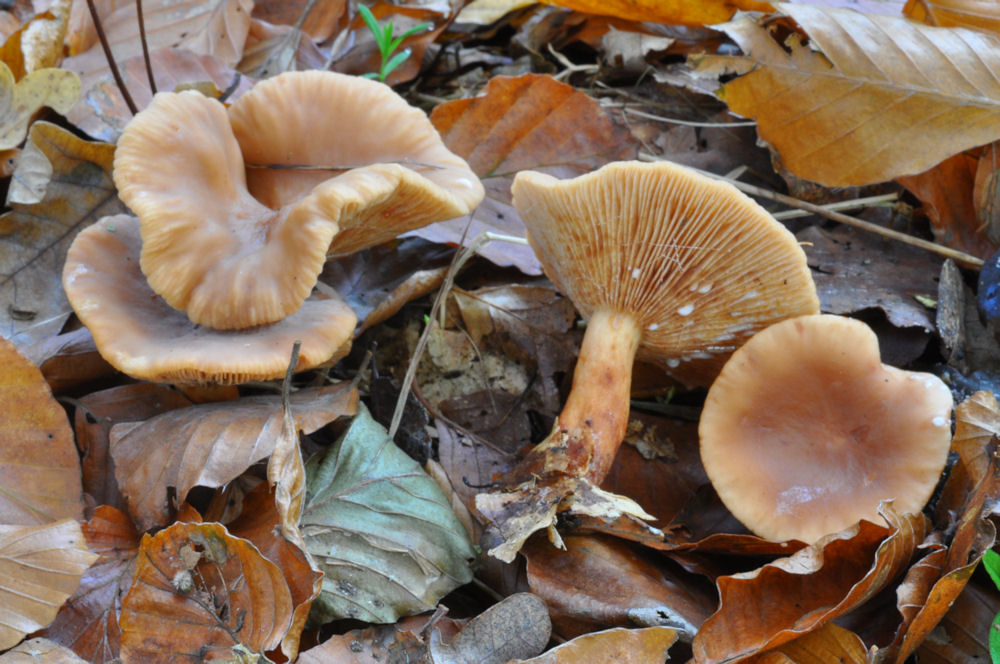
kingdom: Fungi
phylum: Basidiomycota
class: Agaricomycetes
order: Russulales
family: Russulaceae
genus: Lactarius
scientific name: Lactarius camphoratus
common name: kamfer-mælkehat
